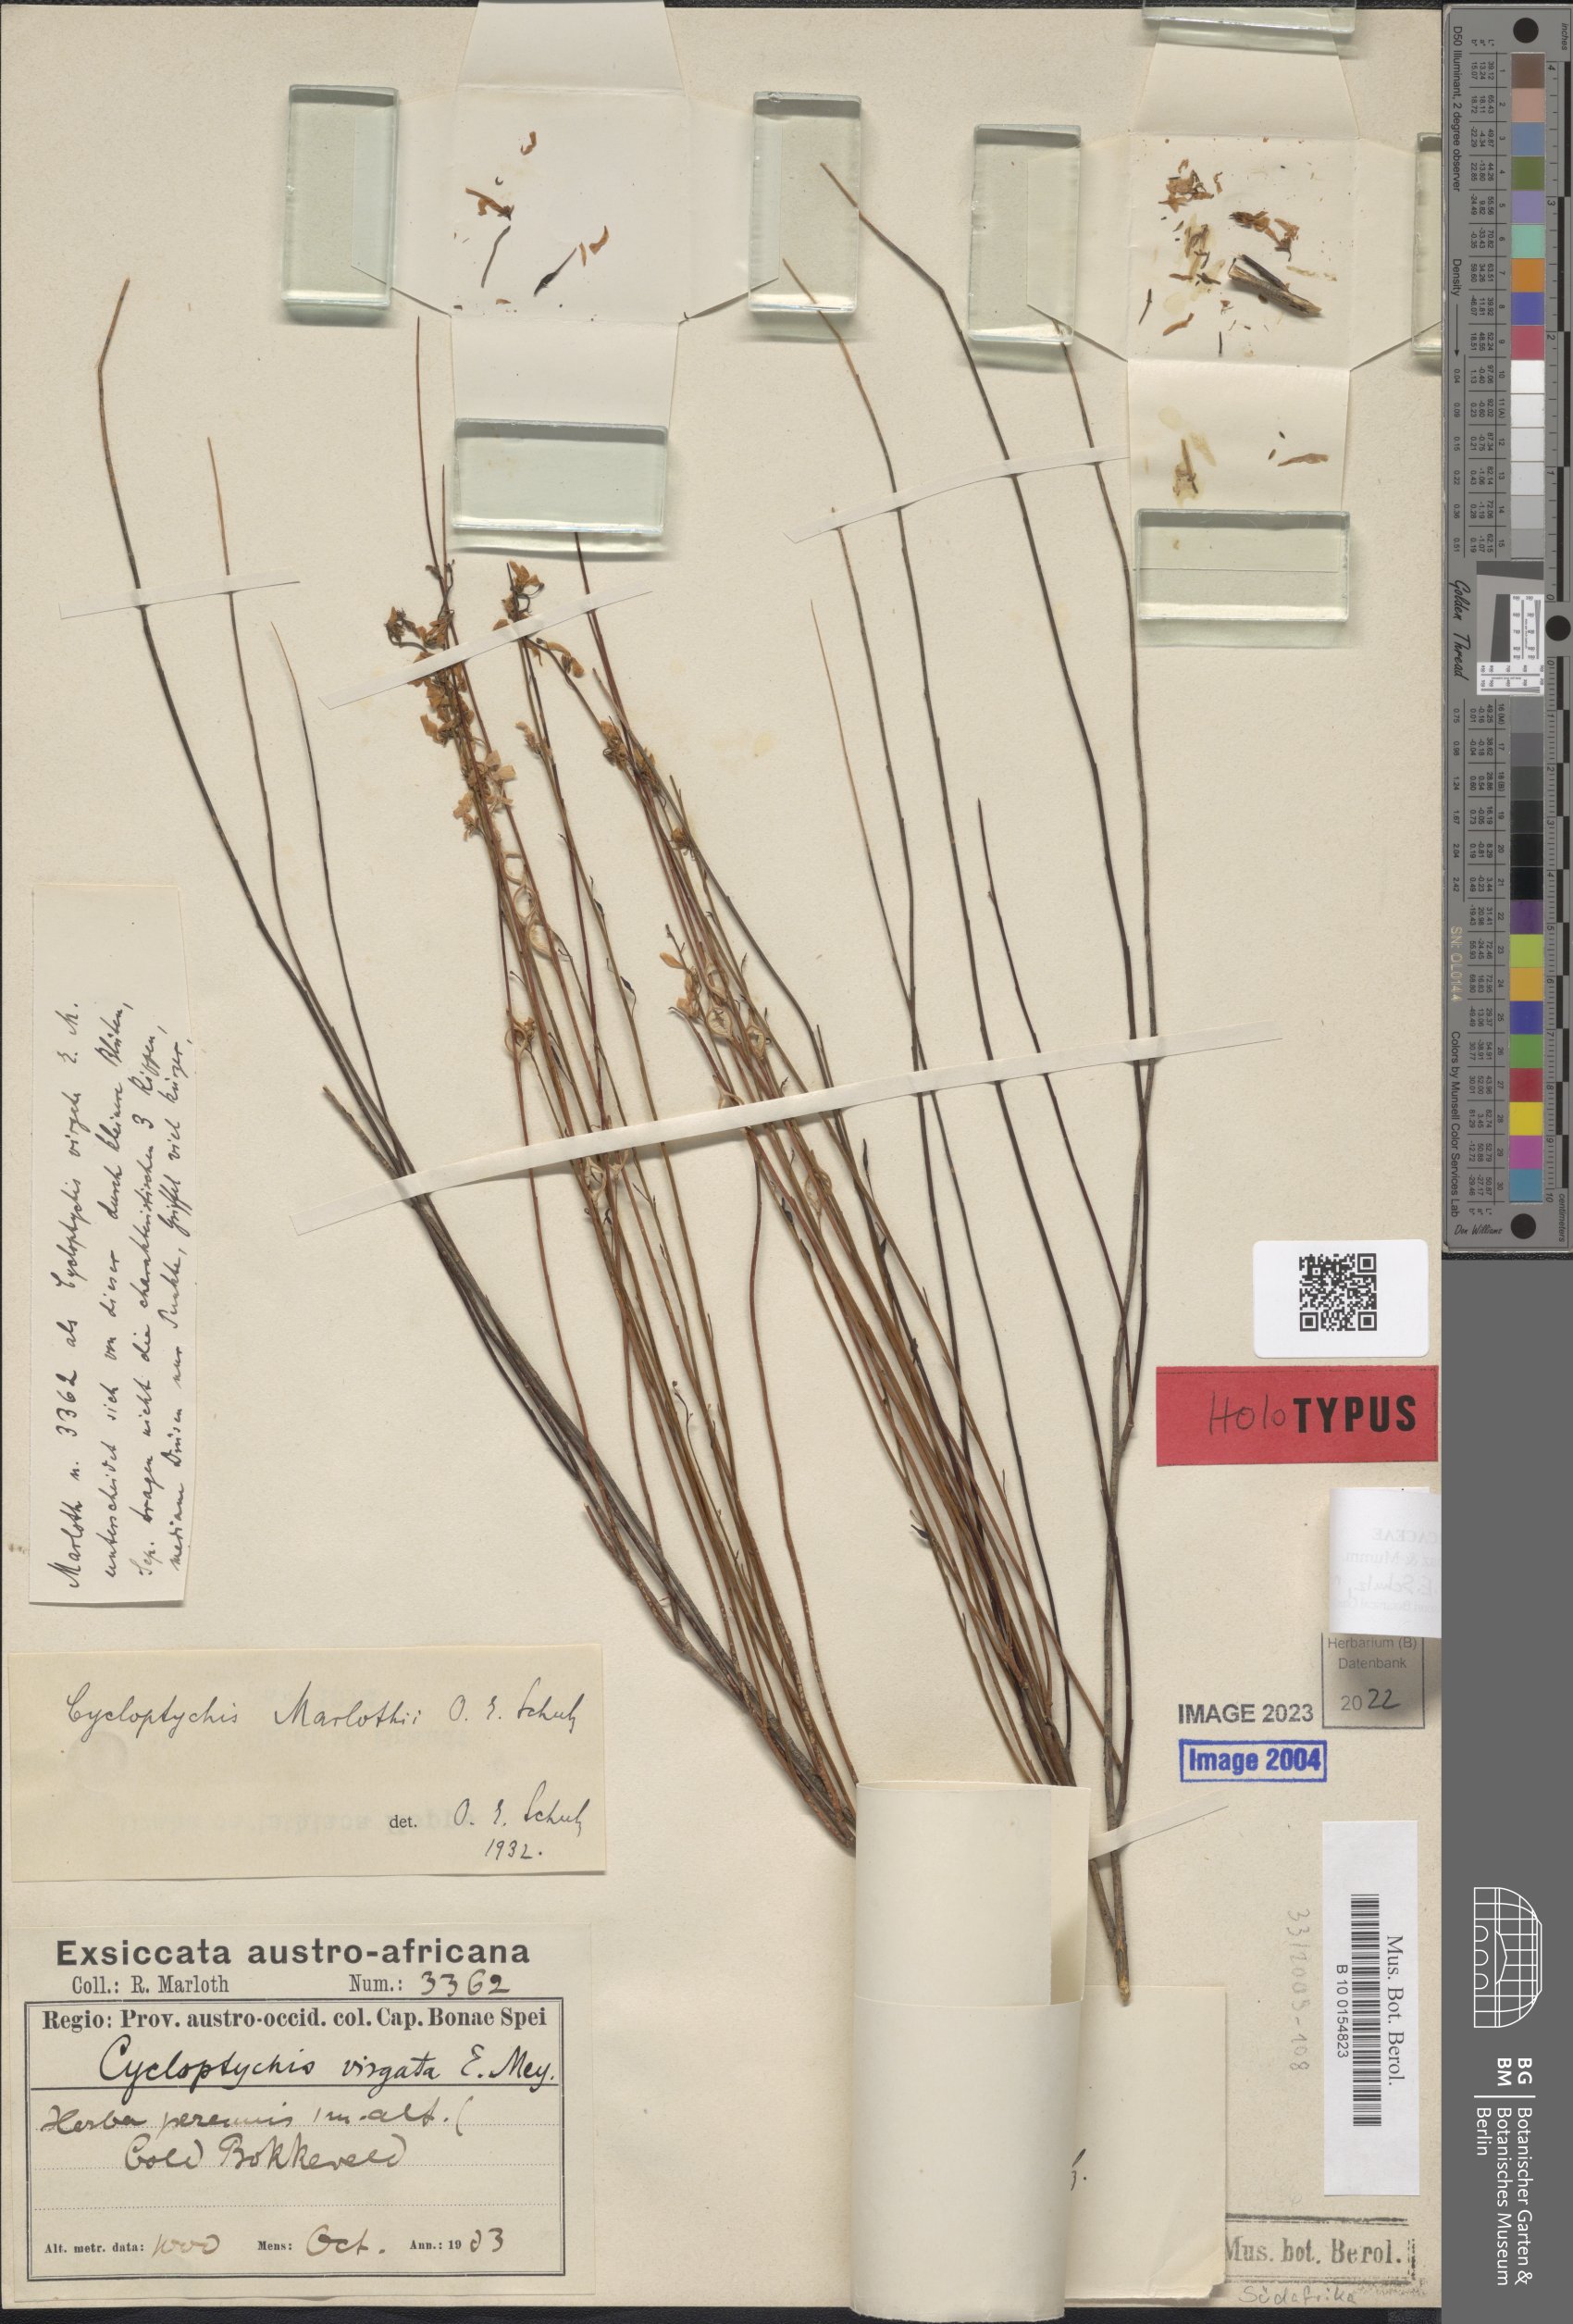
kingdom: Plantae
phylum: Tracheophyta
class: Magnoliopsida
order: Brassicales
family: Brassicaceae
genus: Heliophila
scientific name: Heliophila hurkana
